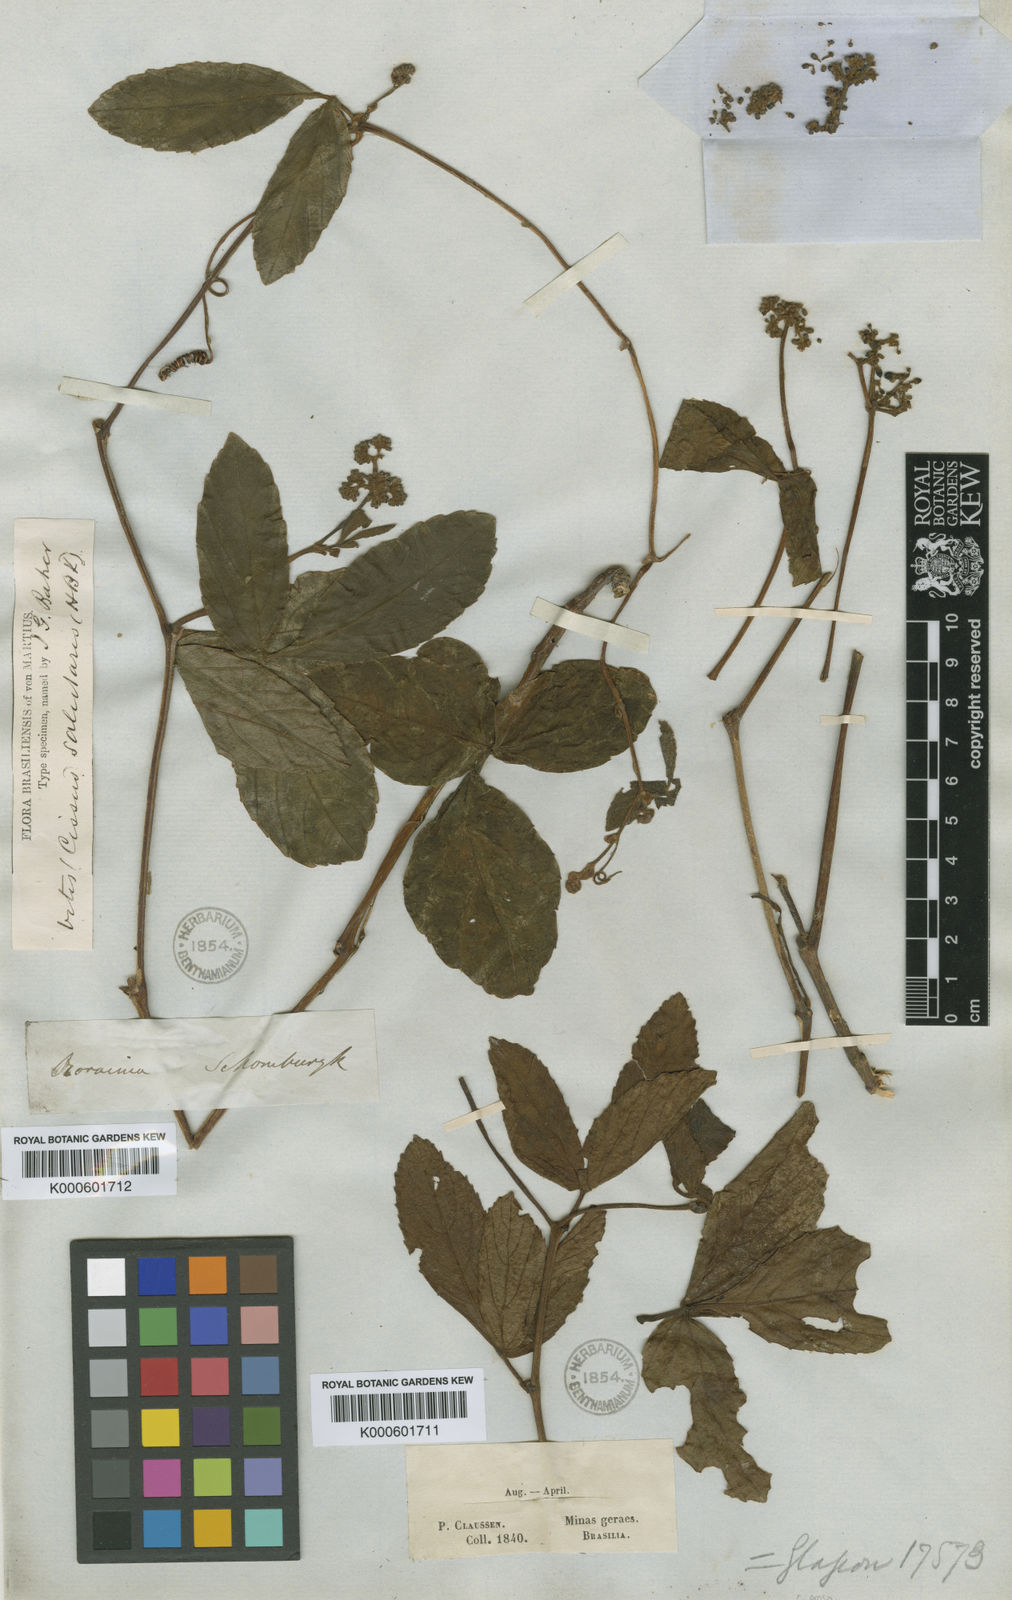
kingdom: Plantae
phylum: Tracheophyta
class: Magnoliopsida
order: Vitales
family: Vitaceae
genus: Cissus
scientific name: Cissus erosa
